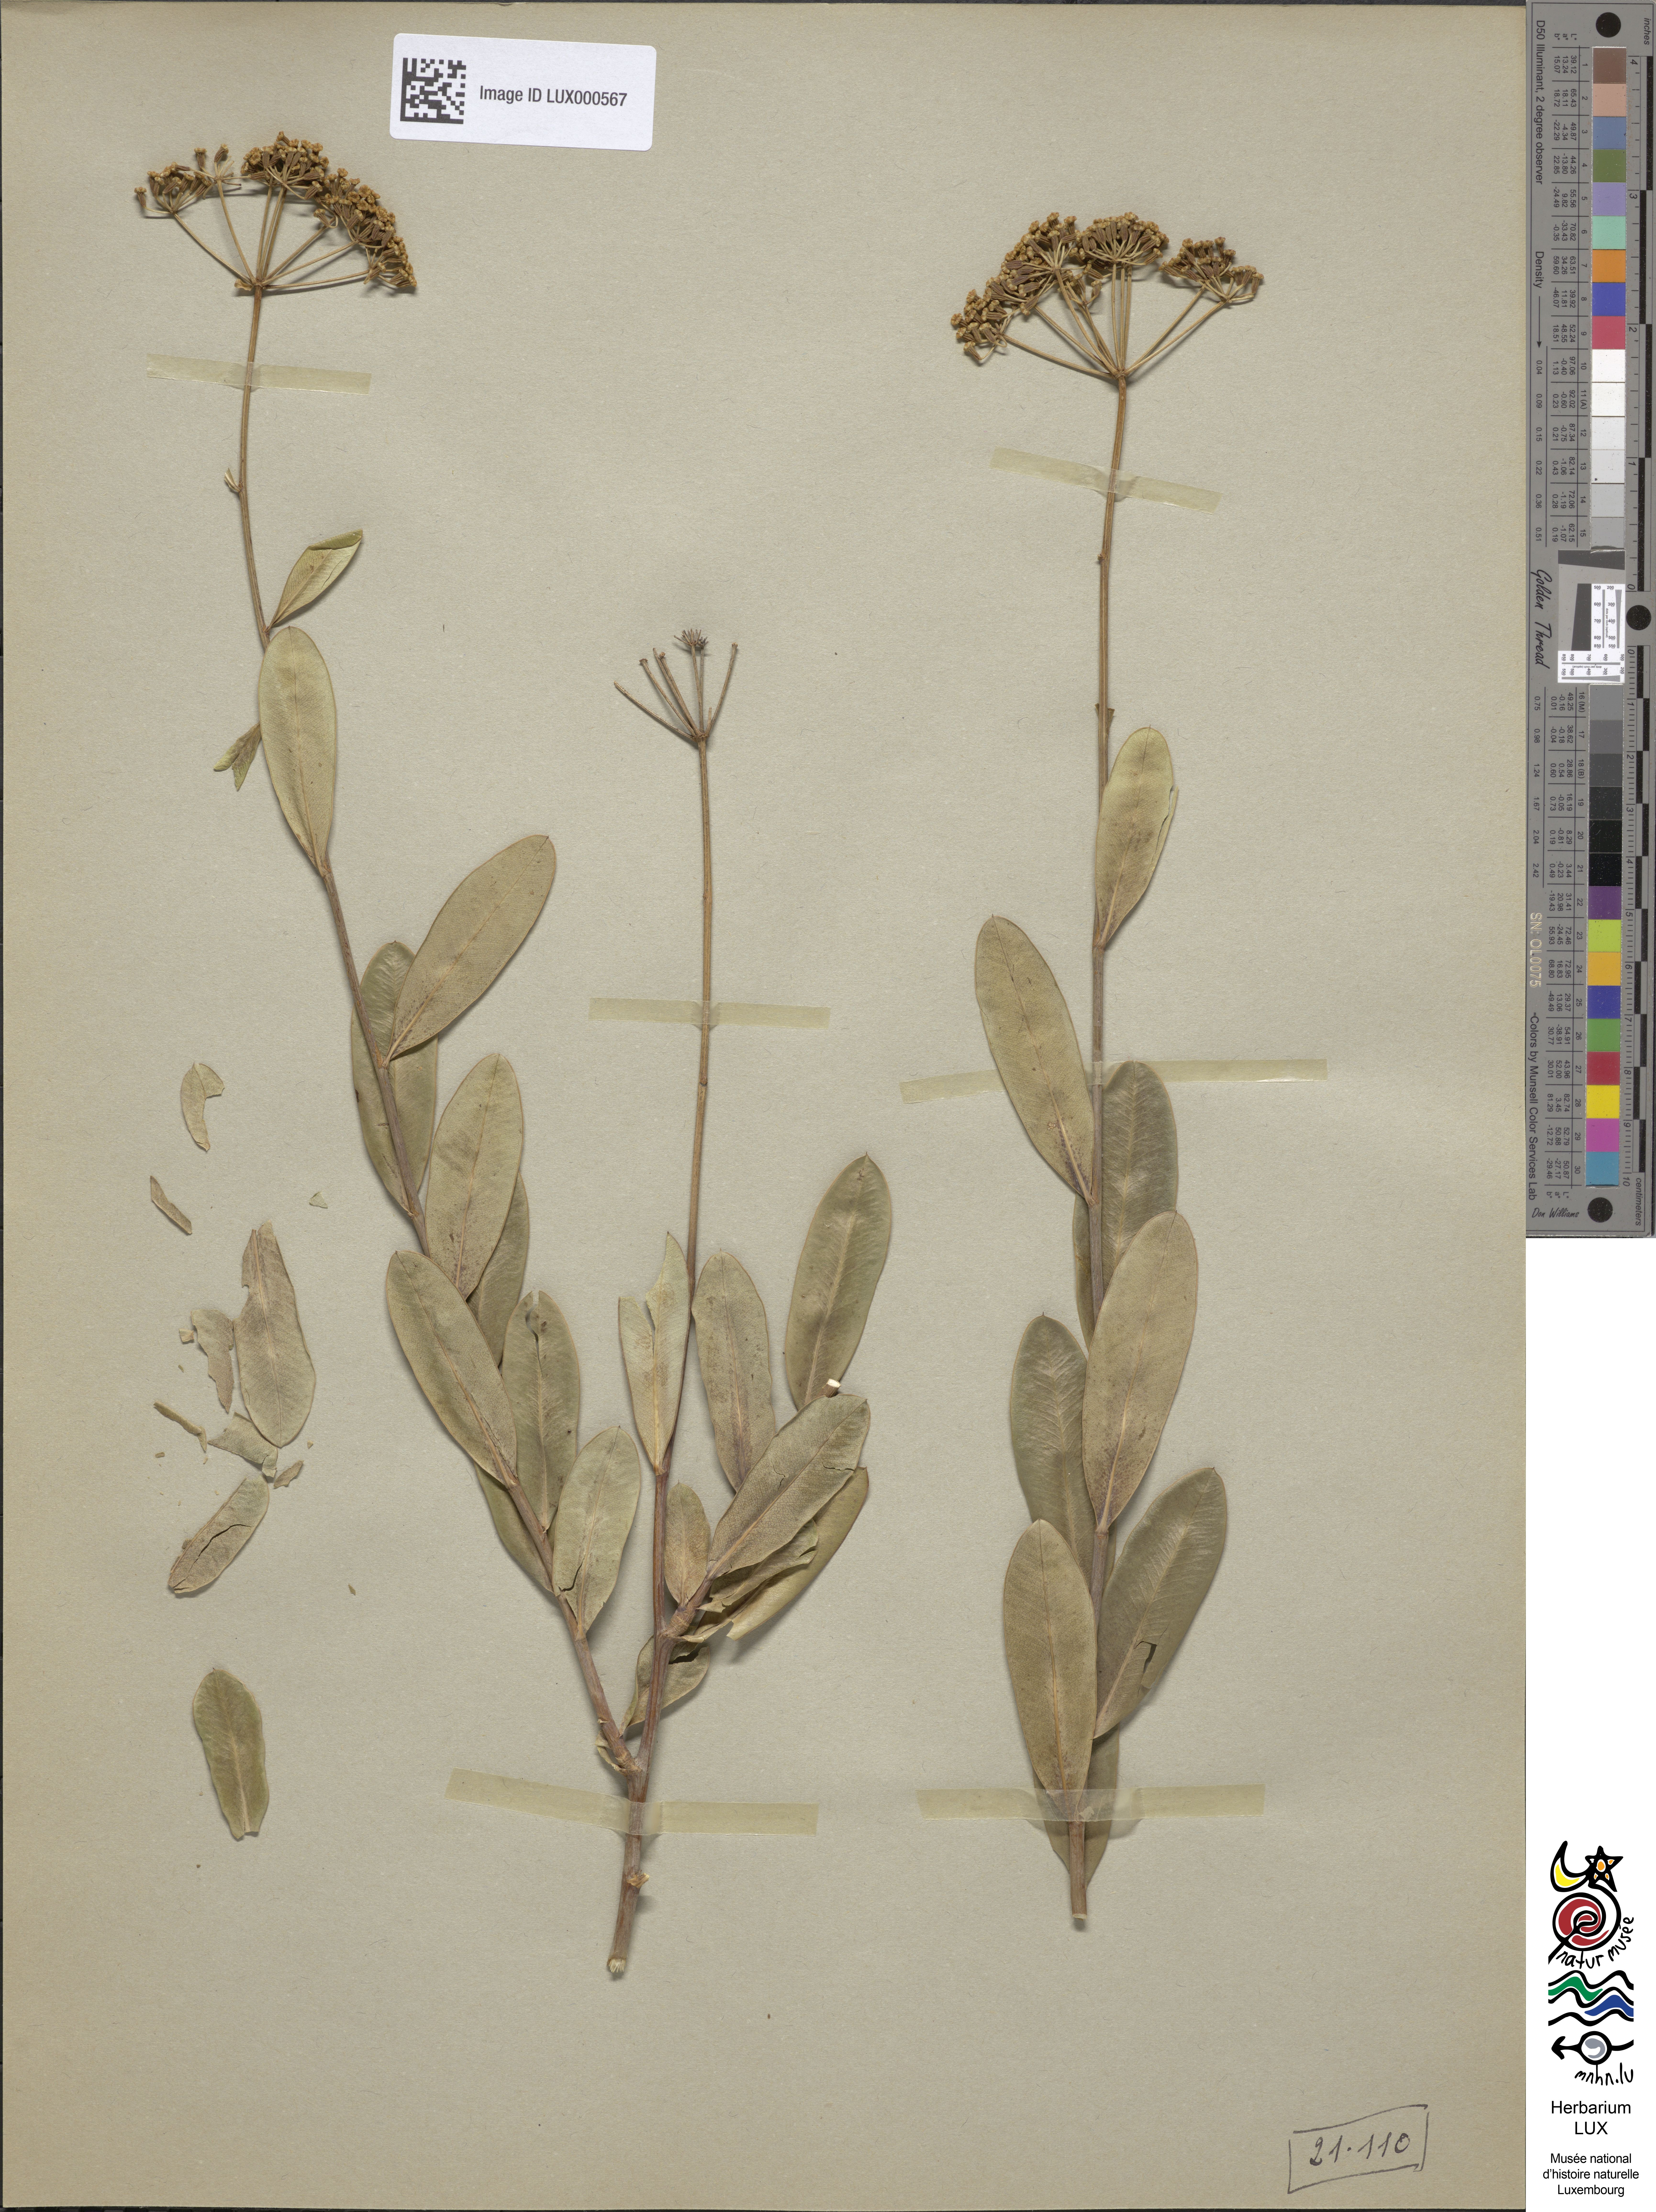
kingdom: Plantae
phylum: Tracheophyta
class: Magnoliopsida
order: Apiales
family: Apiaceae
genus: Bupleurum
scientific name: Bupleurum fruticosum
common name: Shrubby hare's-ear
